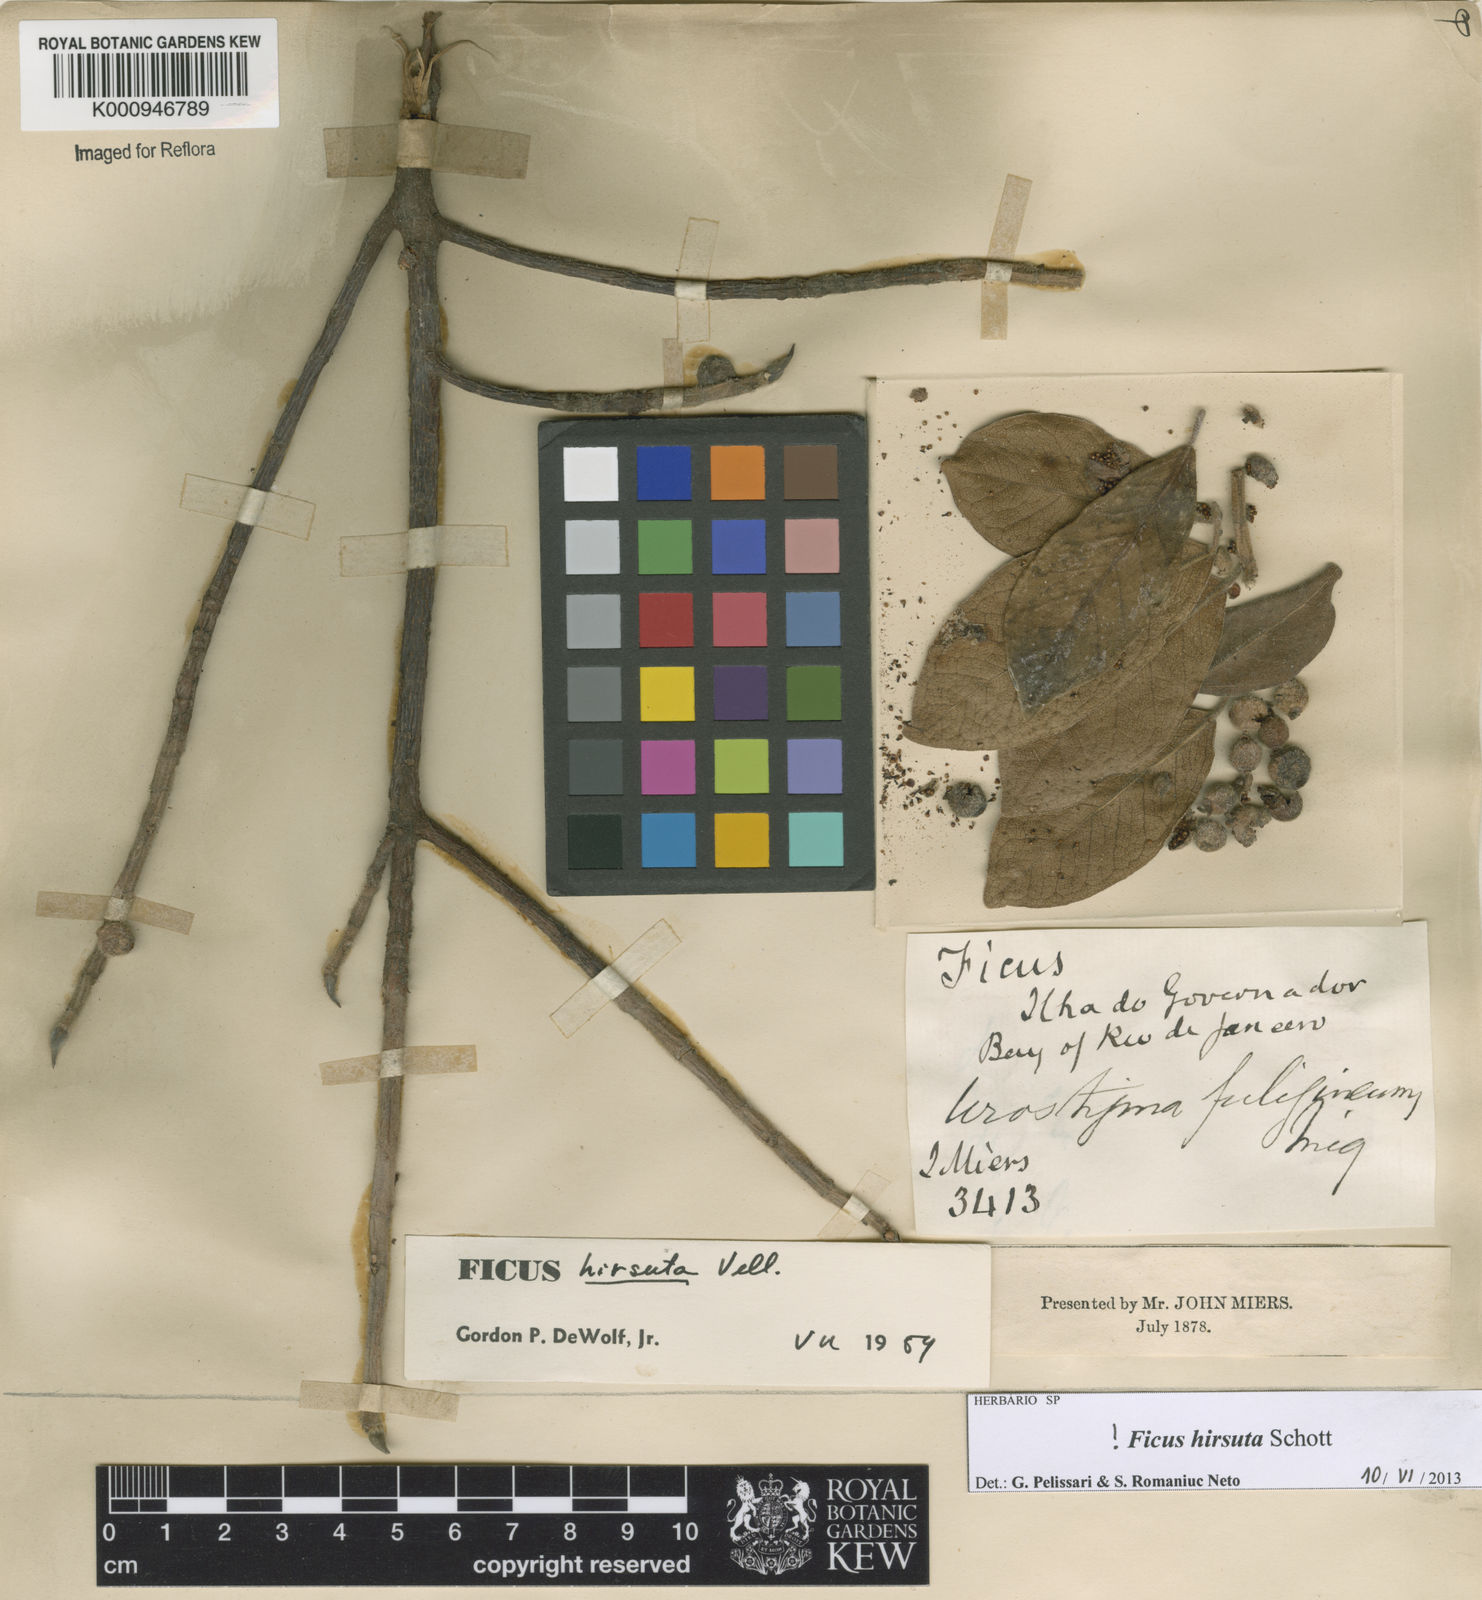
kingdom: Plantae
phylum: Tracheophyta
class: Magnoliopsida
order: Rosales
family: Moraceae
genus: Ficus
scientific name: Ficus hirsuta
